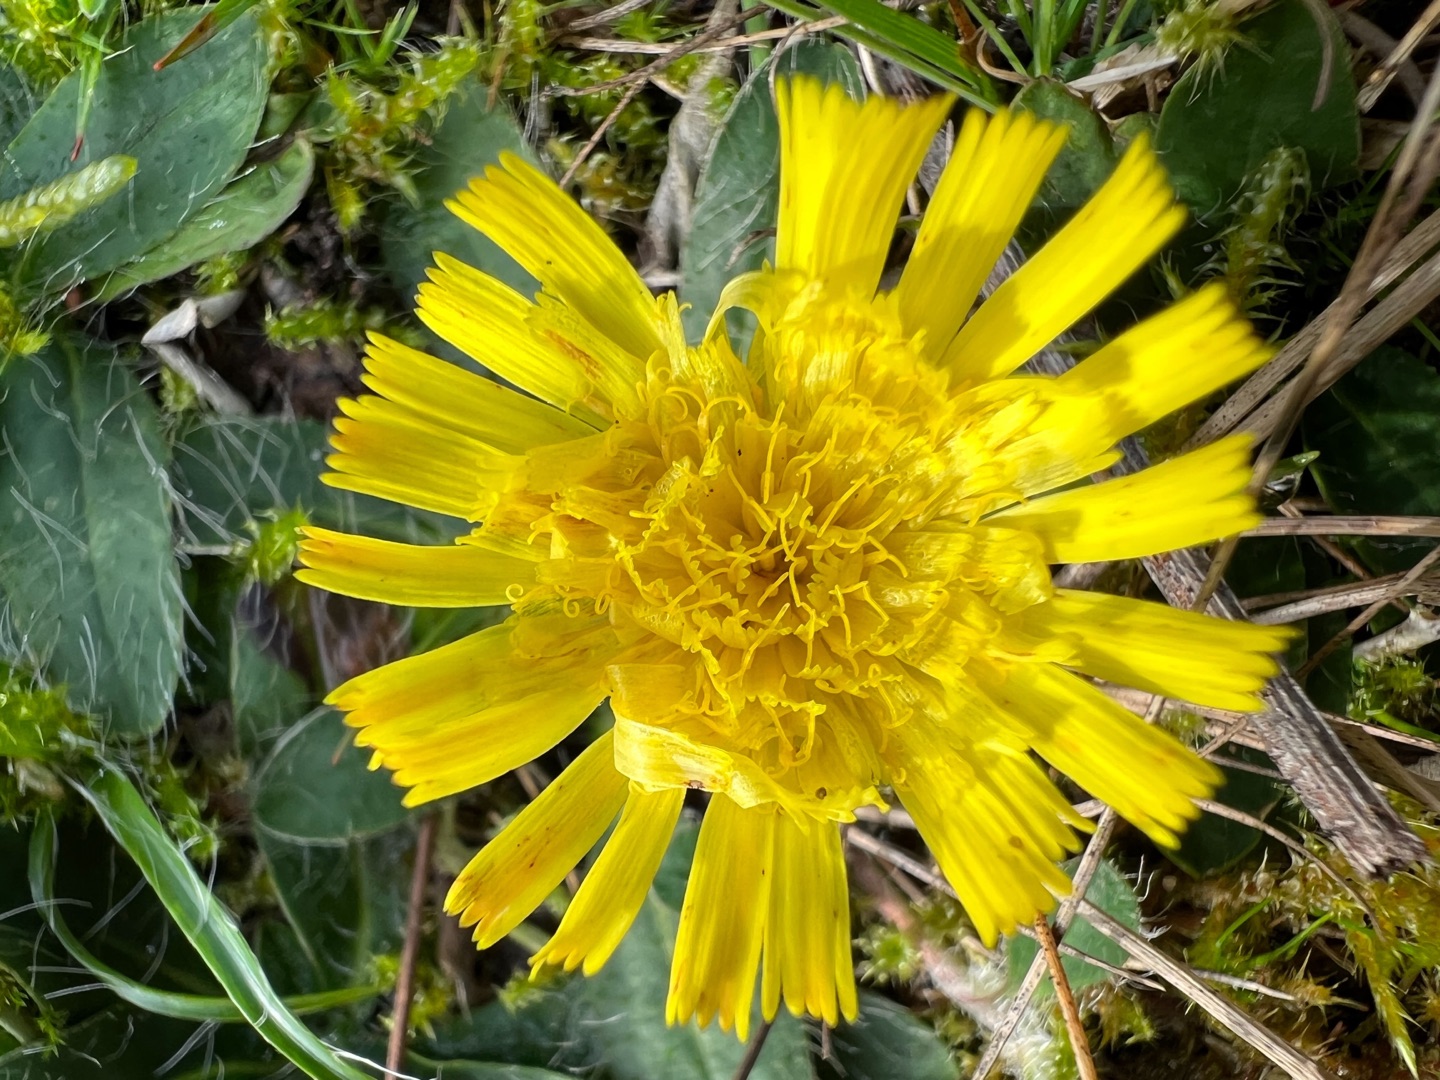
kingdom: Plantae
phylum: Tracheophyta
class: Magnoliopsida
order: Asterales
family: Asteraceae
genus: Pilosella
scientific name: Pilosella officinarum
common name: Håret høgeurt
